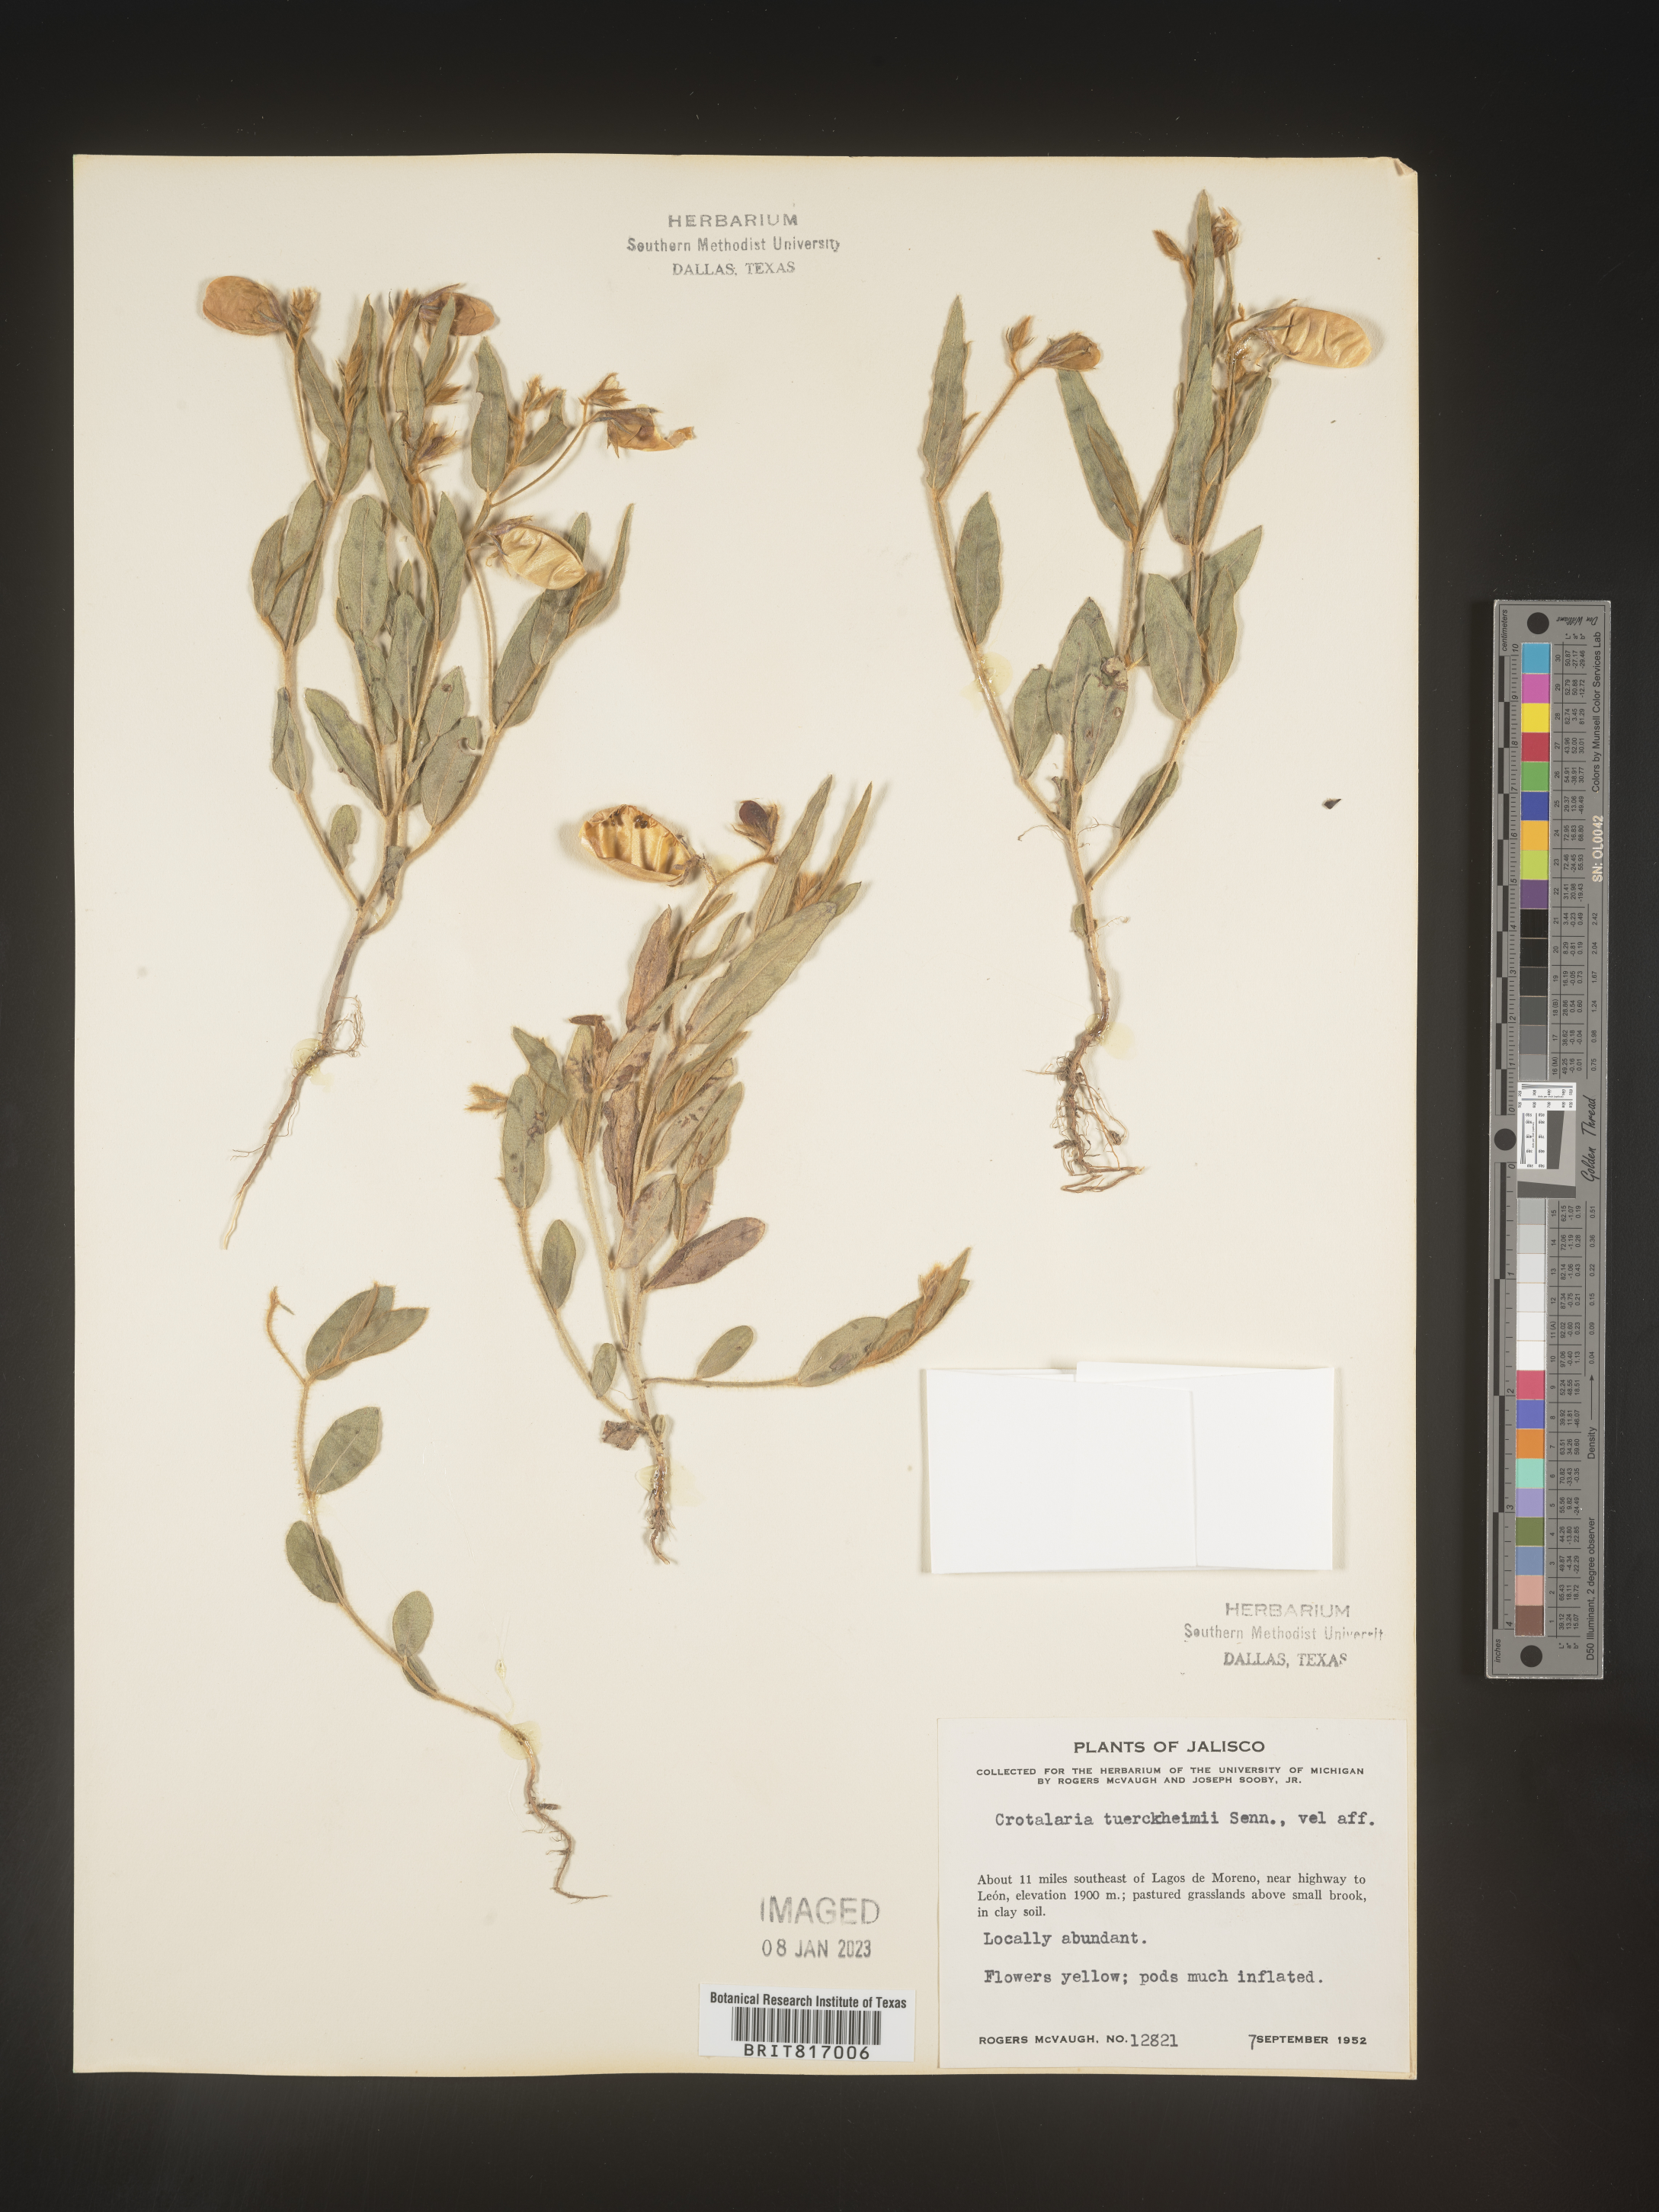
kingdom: Plantae
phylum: Tracheophyta
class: Magnoliopsida
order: Fabales
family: Fabaceae
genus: Crotalaria
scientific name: Crotalaria
